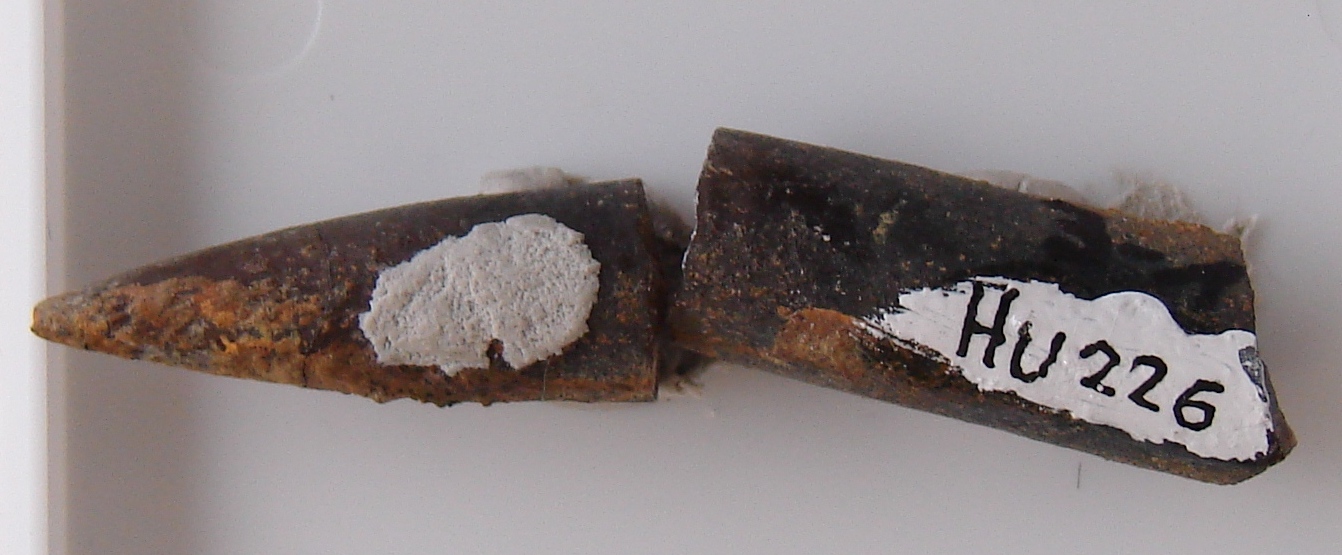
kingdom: Animalia
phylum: Mollusca
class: Cephalopoda
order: Belemnitida
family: Passaloteuthidae
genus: Brevibelus
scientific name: Brevibelus breviformis
